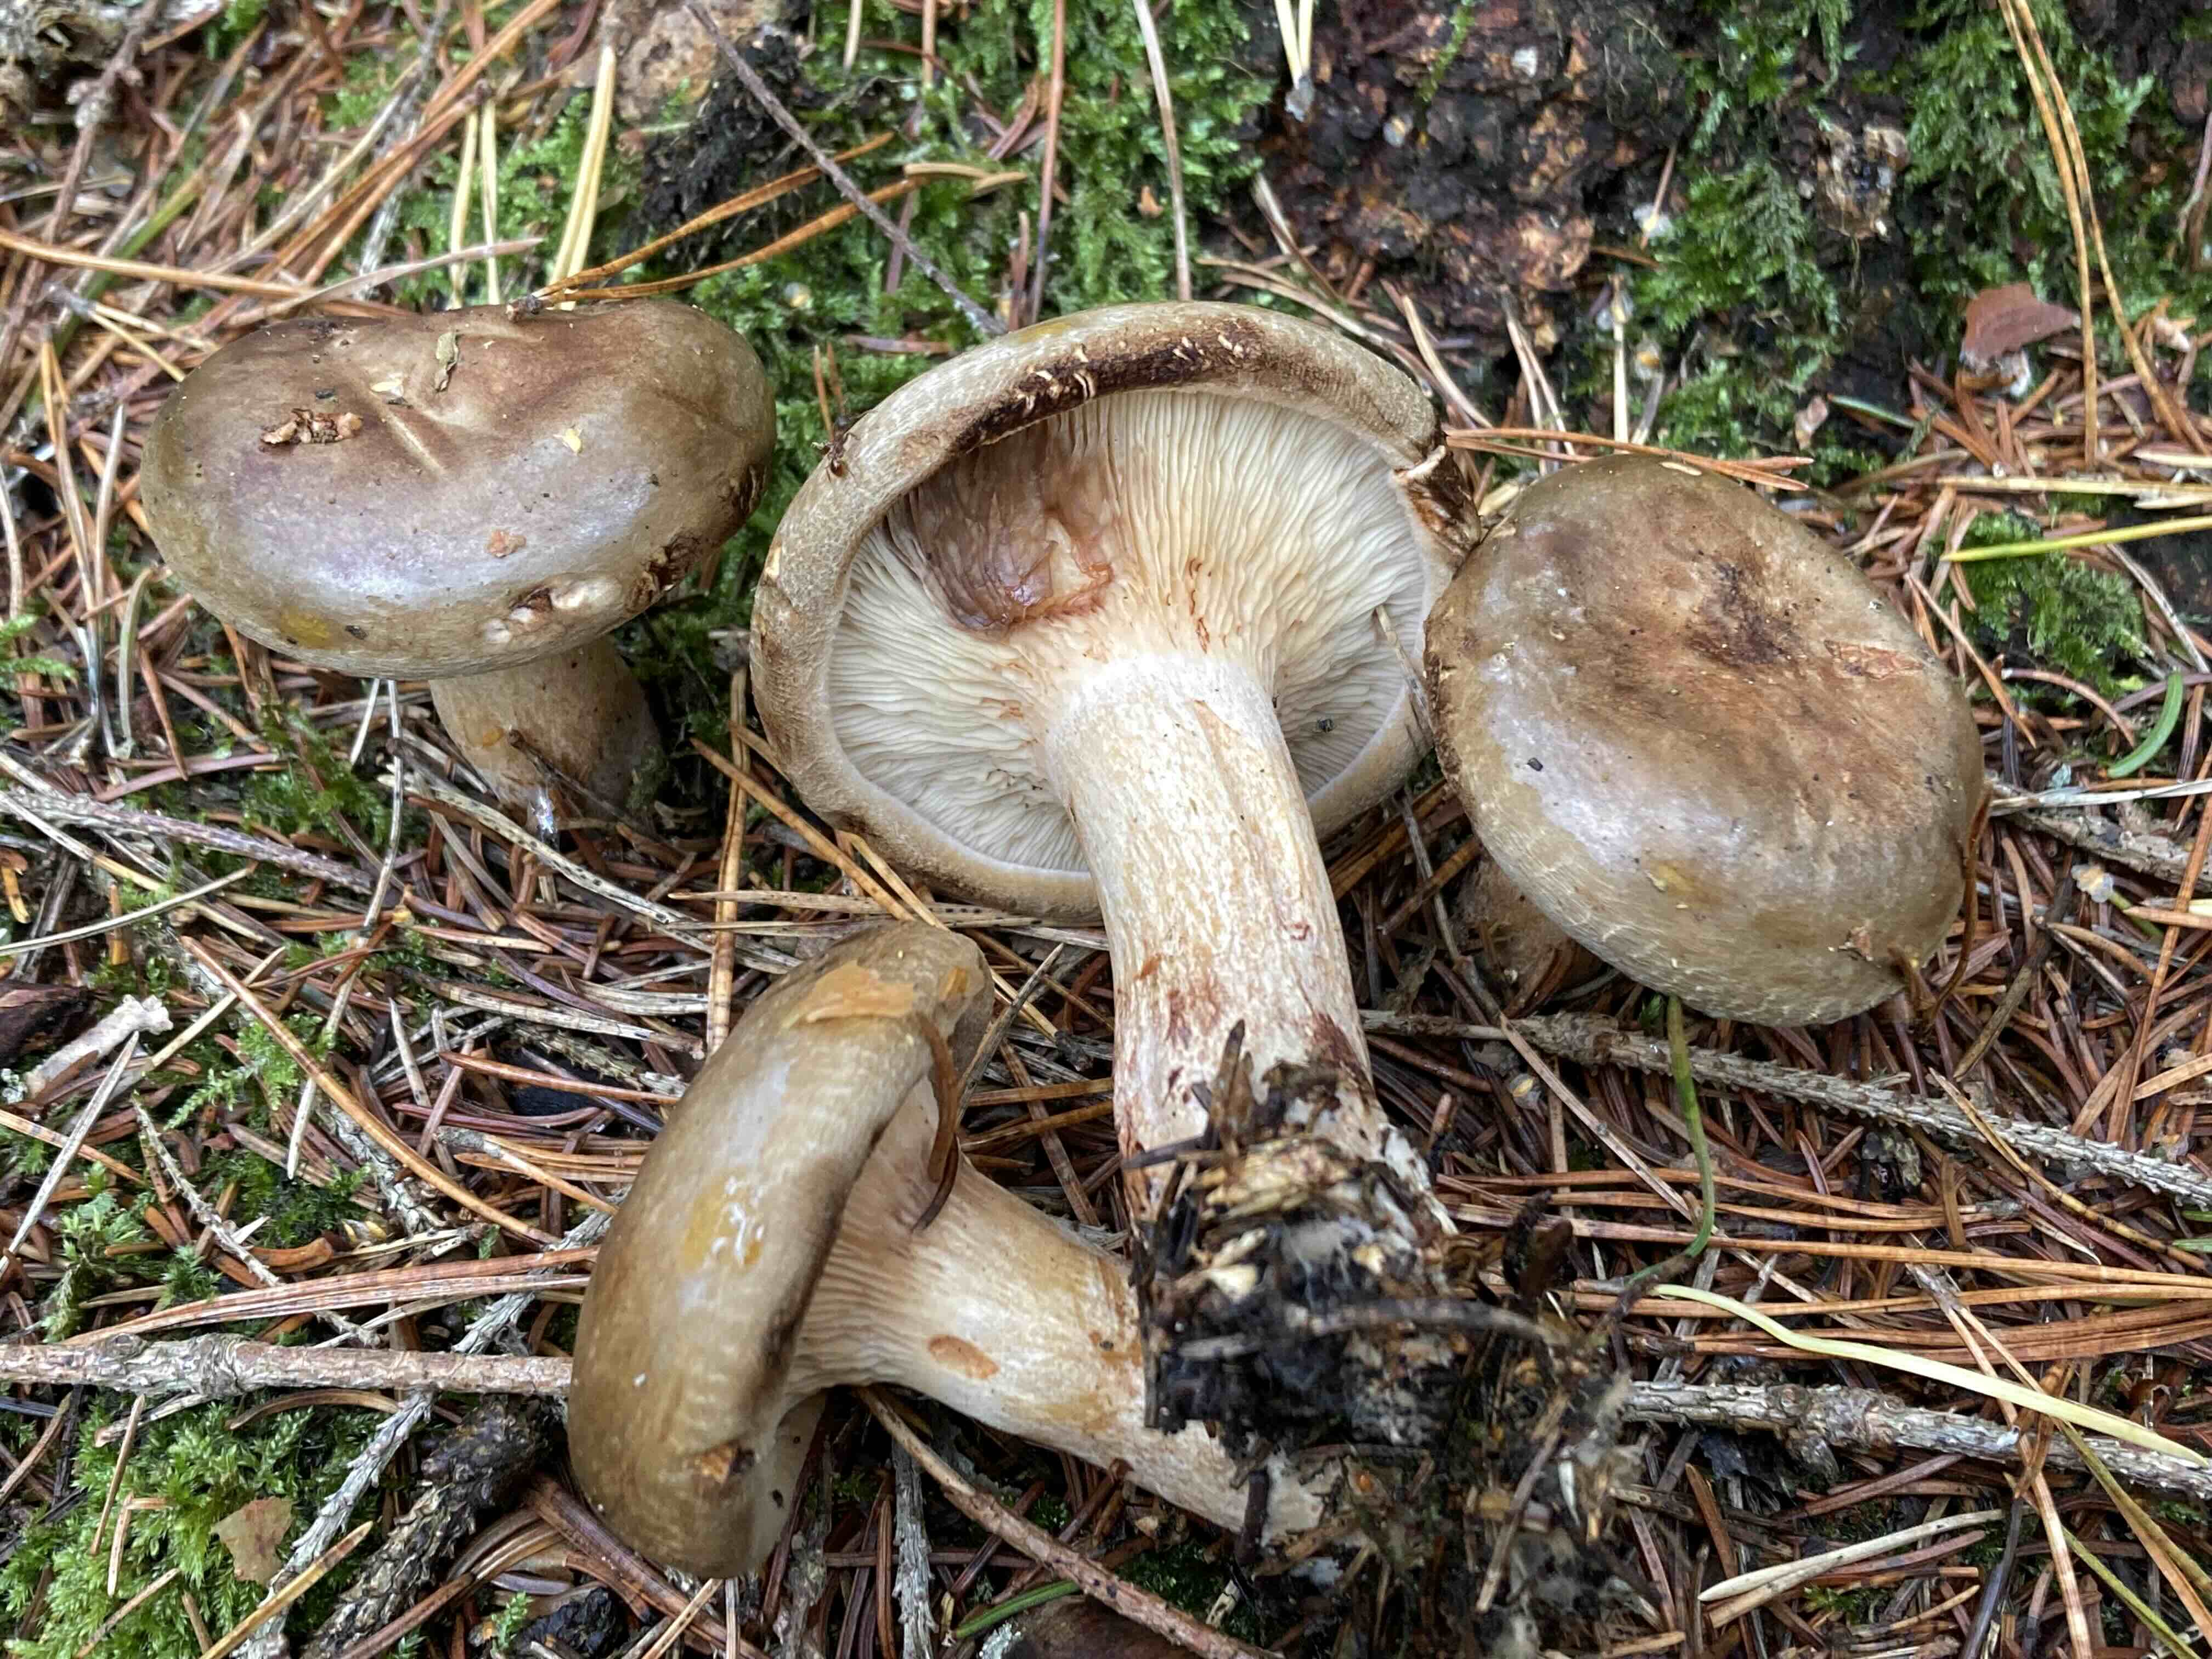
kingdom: Fungi
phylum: Basidiomycota
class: Agaricomycetes
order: Boletales
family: Paxillaceae
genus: Paxillus
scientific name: Paxillus involutus
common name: almindelig netbladhat
